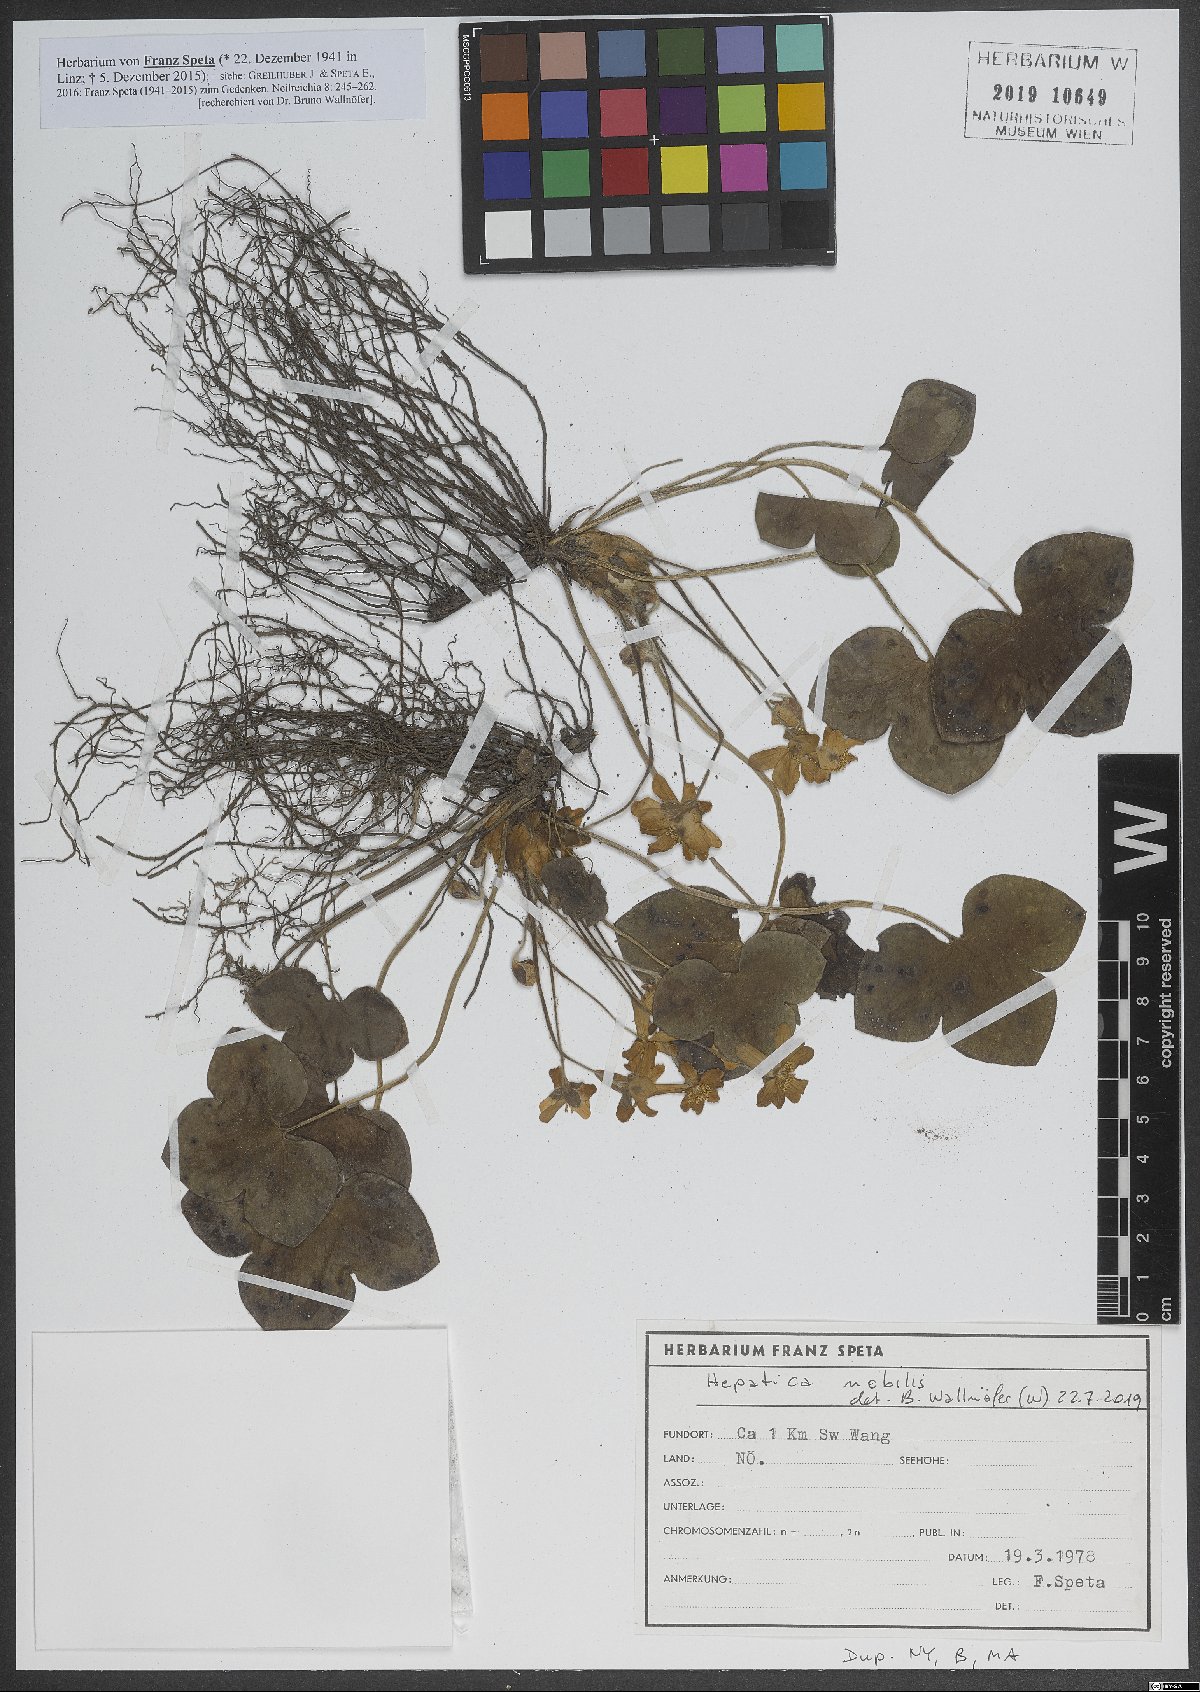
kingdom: Plantae
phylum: Tracheophyta
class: Magnoliopsida
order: Ranunculales
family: Ranunculaceae
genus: Hepatica
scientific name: Hepatica nobilis
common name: Liverleaf
